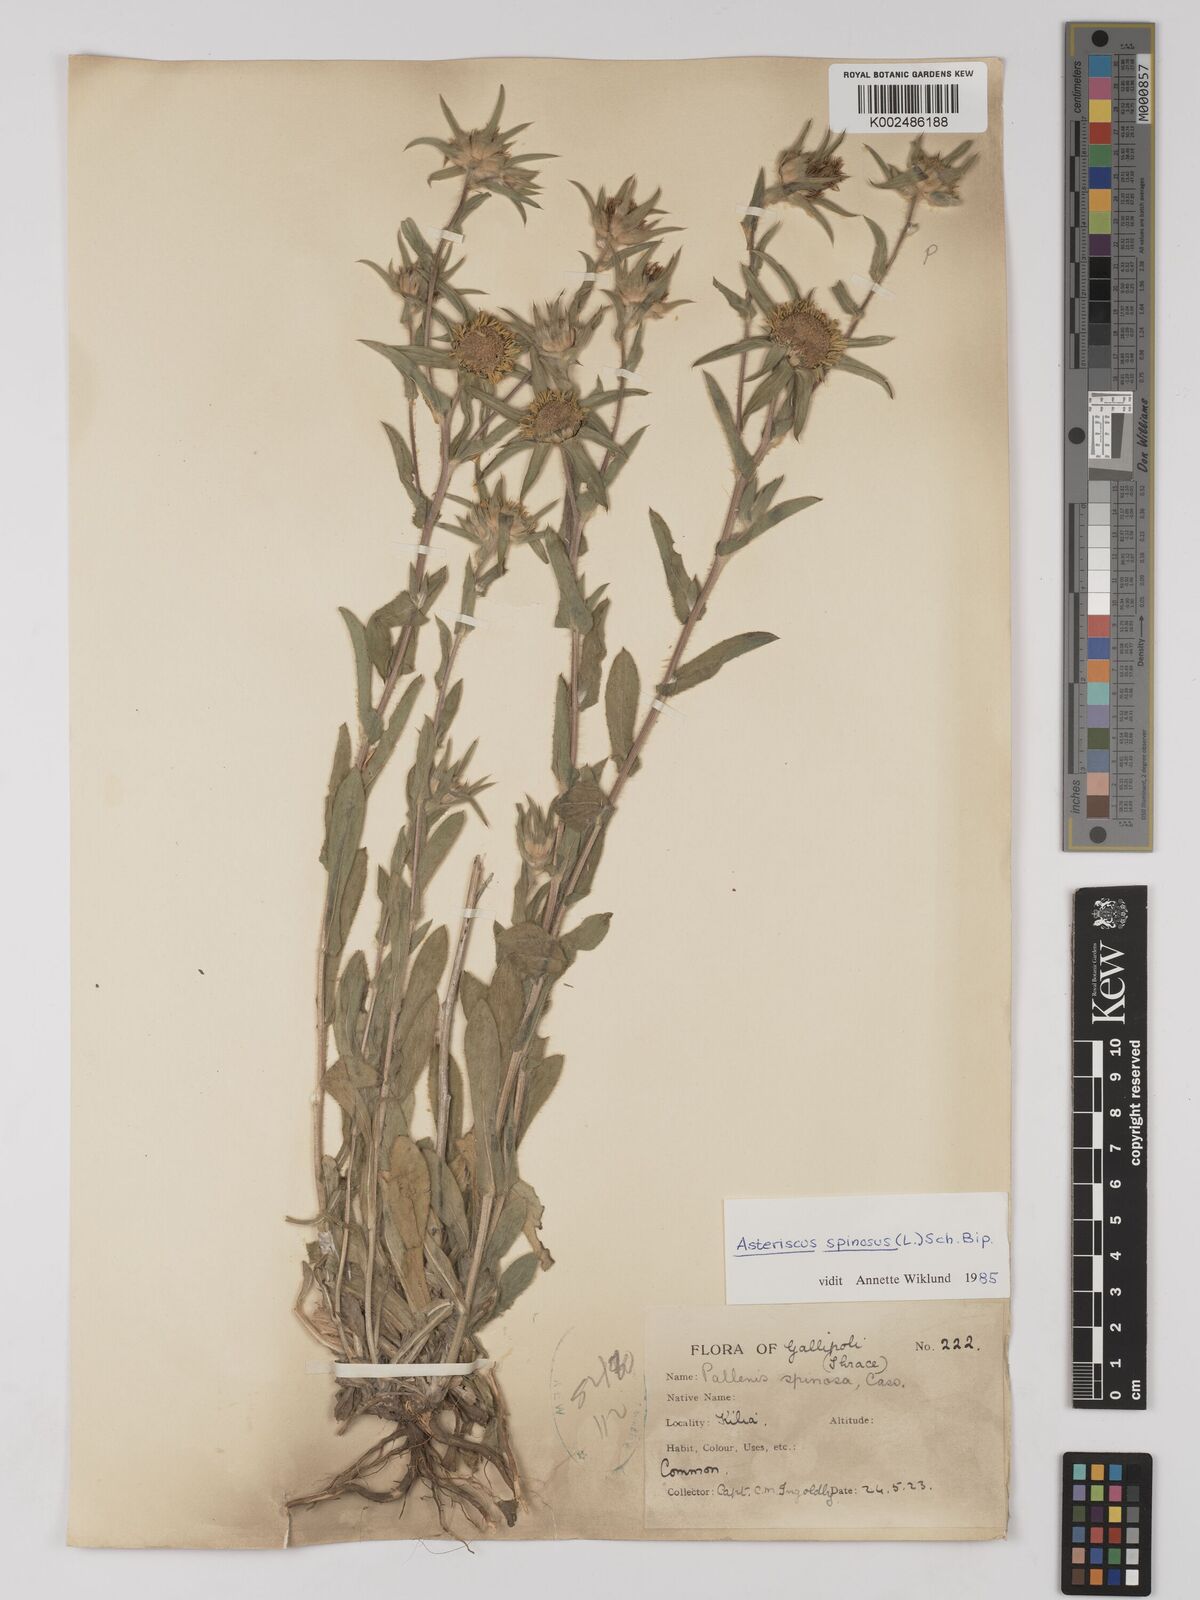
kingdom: Plantae
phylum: Tracheophyta
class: Magnoliopsida
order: Asterales
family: Asteraceae
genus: Pallenis
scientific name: Pallenis spinosa
